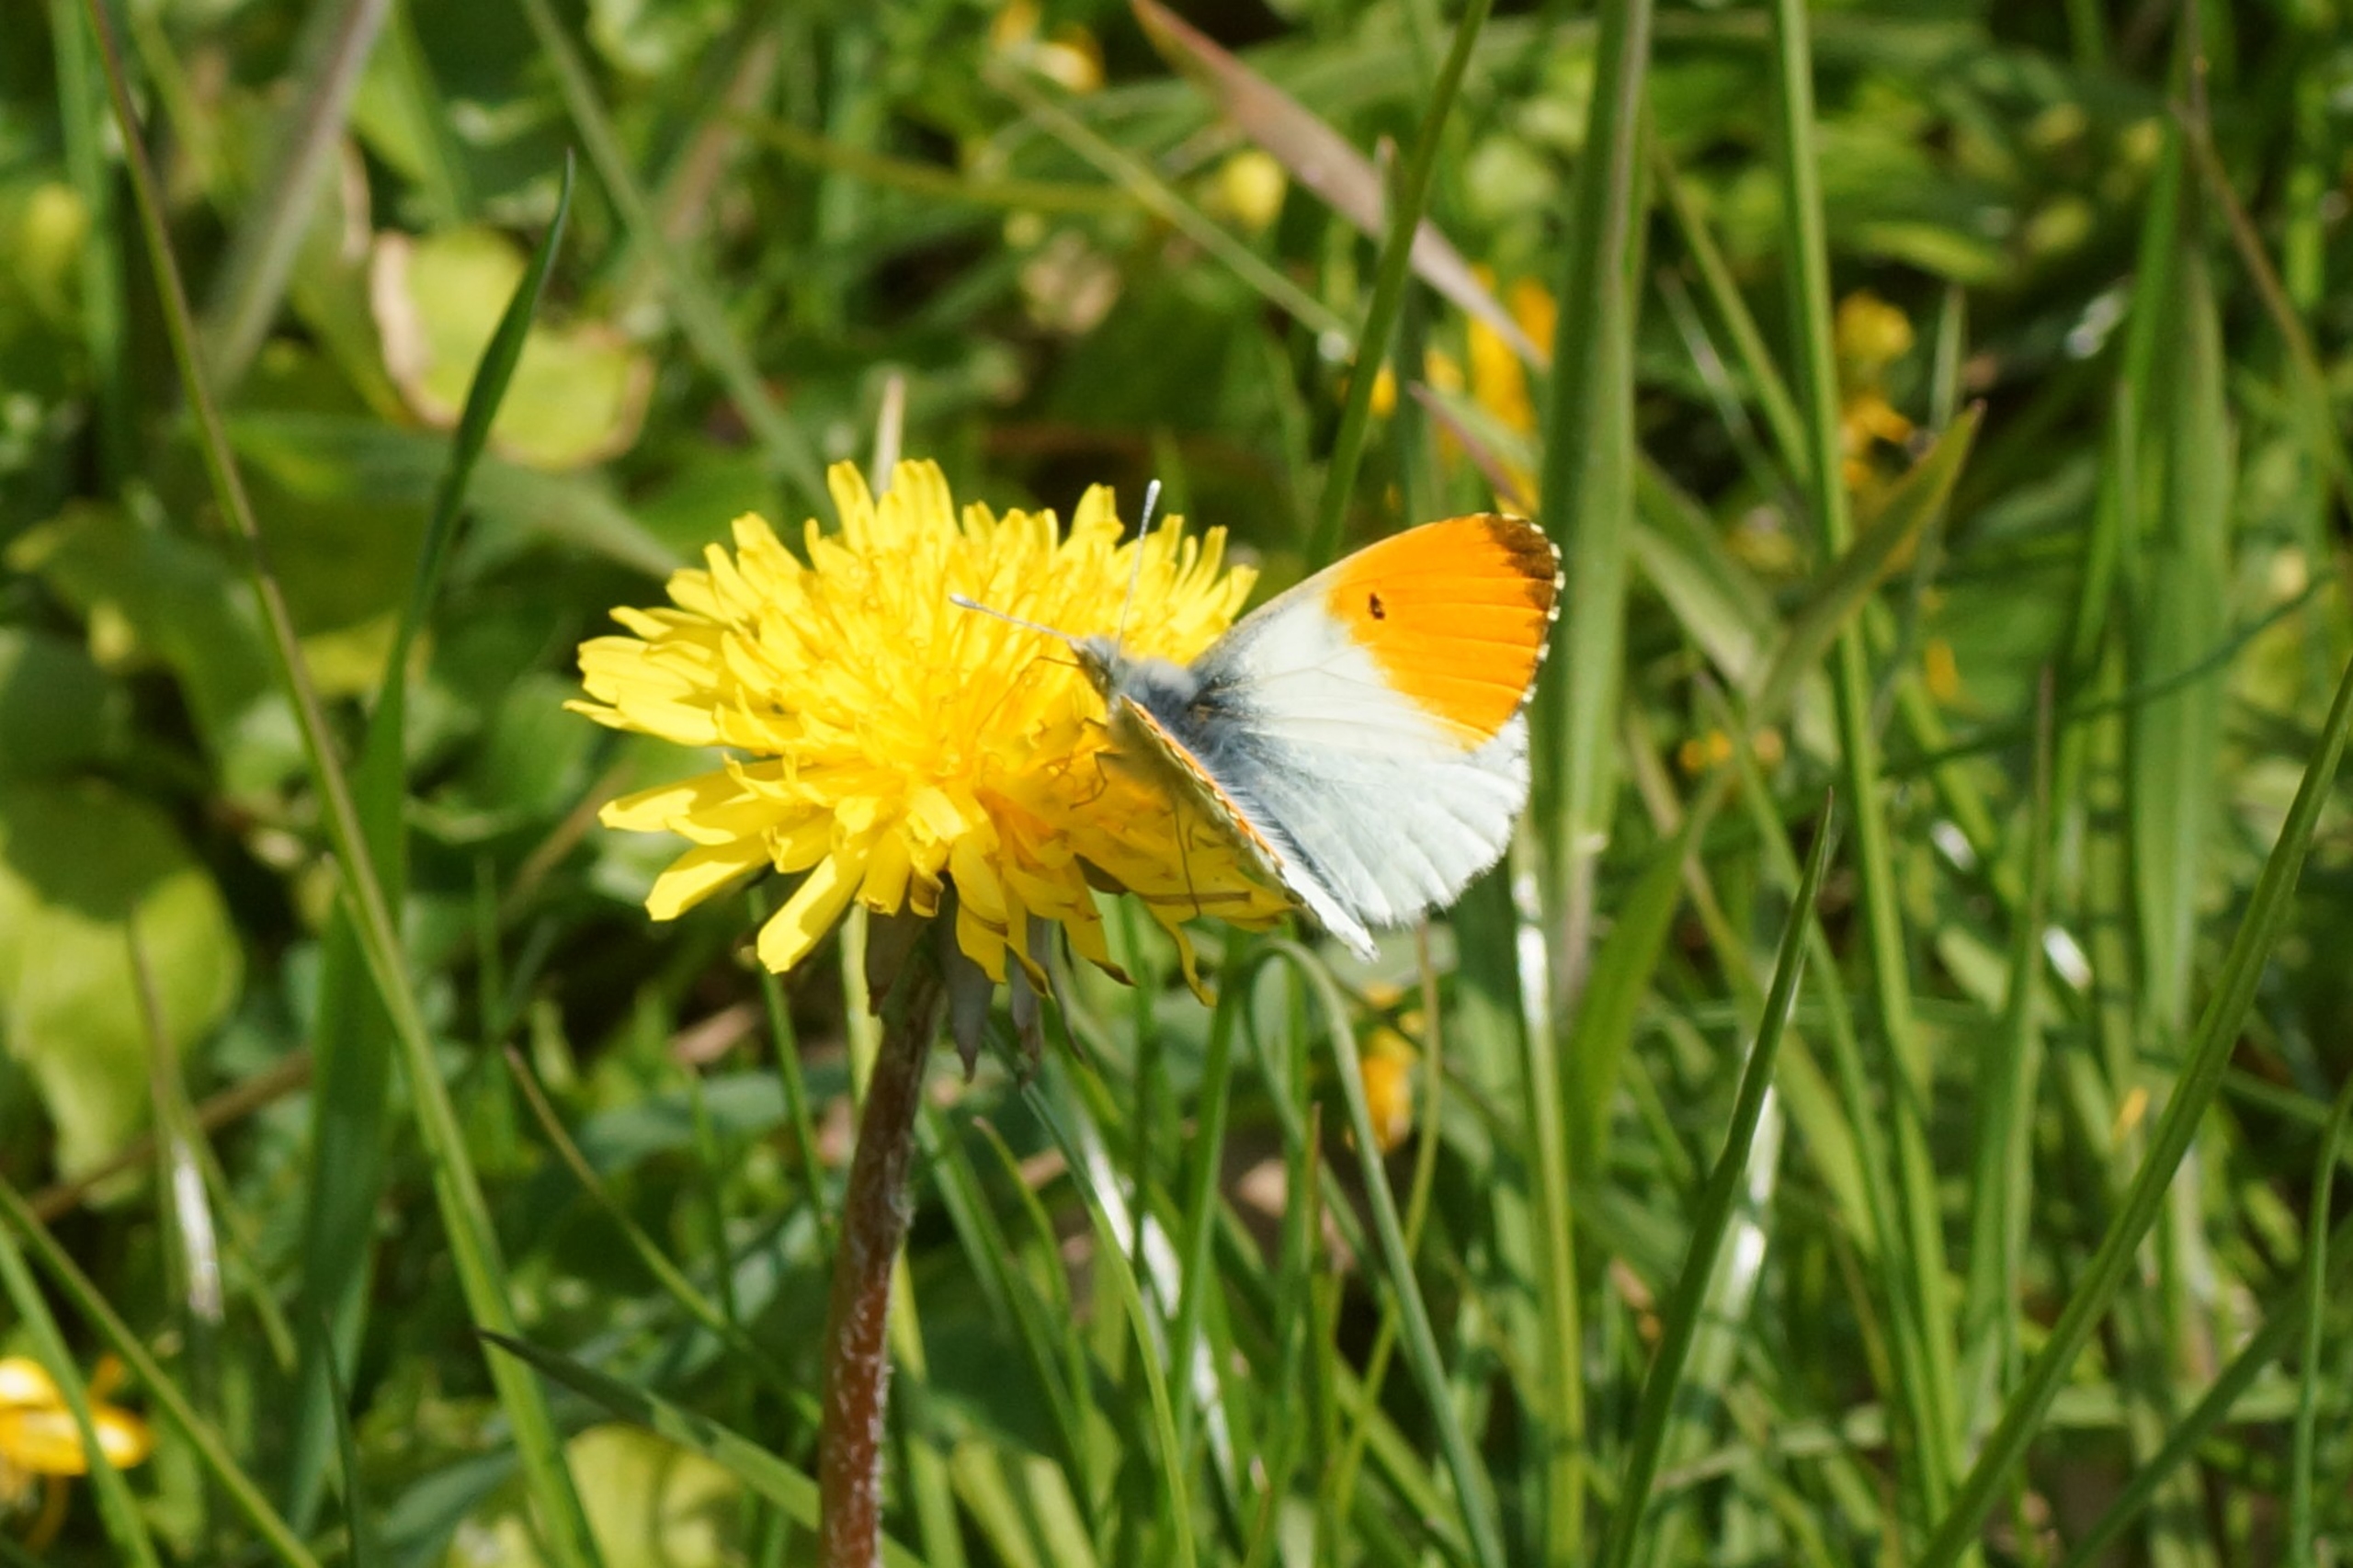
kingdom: Animalia
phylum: Arthropoda
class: Insecta
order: Lepidoptera
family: Pieridae
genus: Anthocharis
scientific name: Anthocharis cardamines
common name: Aurora
